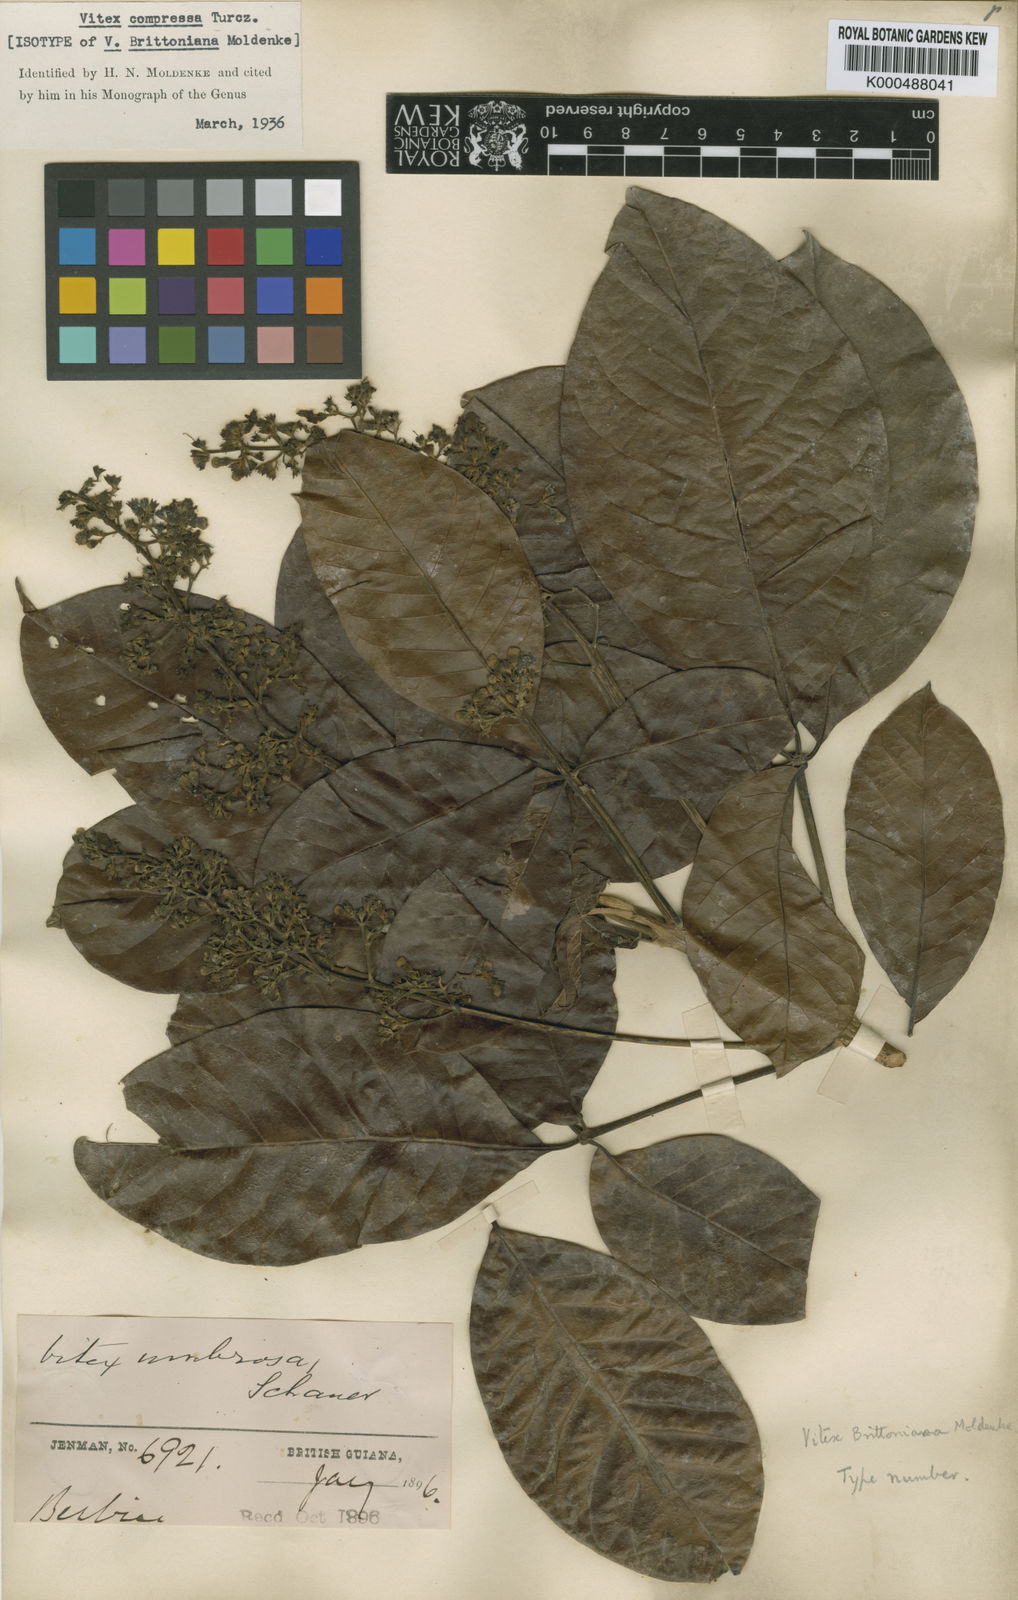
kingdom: Plantae
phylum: Tracheophyta
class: Magnoliopsida
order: Lamiales
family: Lamiaceae
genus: Vitex
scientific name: Vitex compressa
